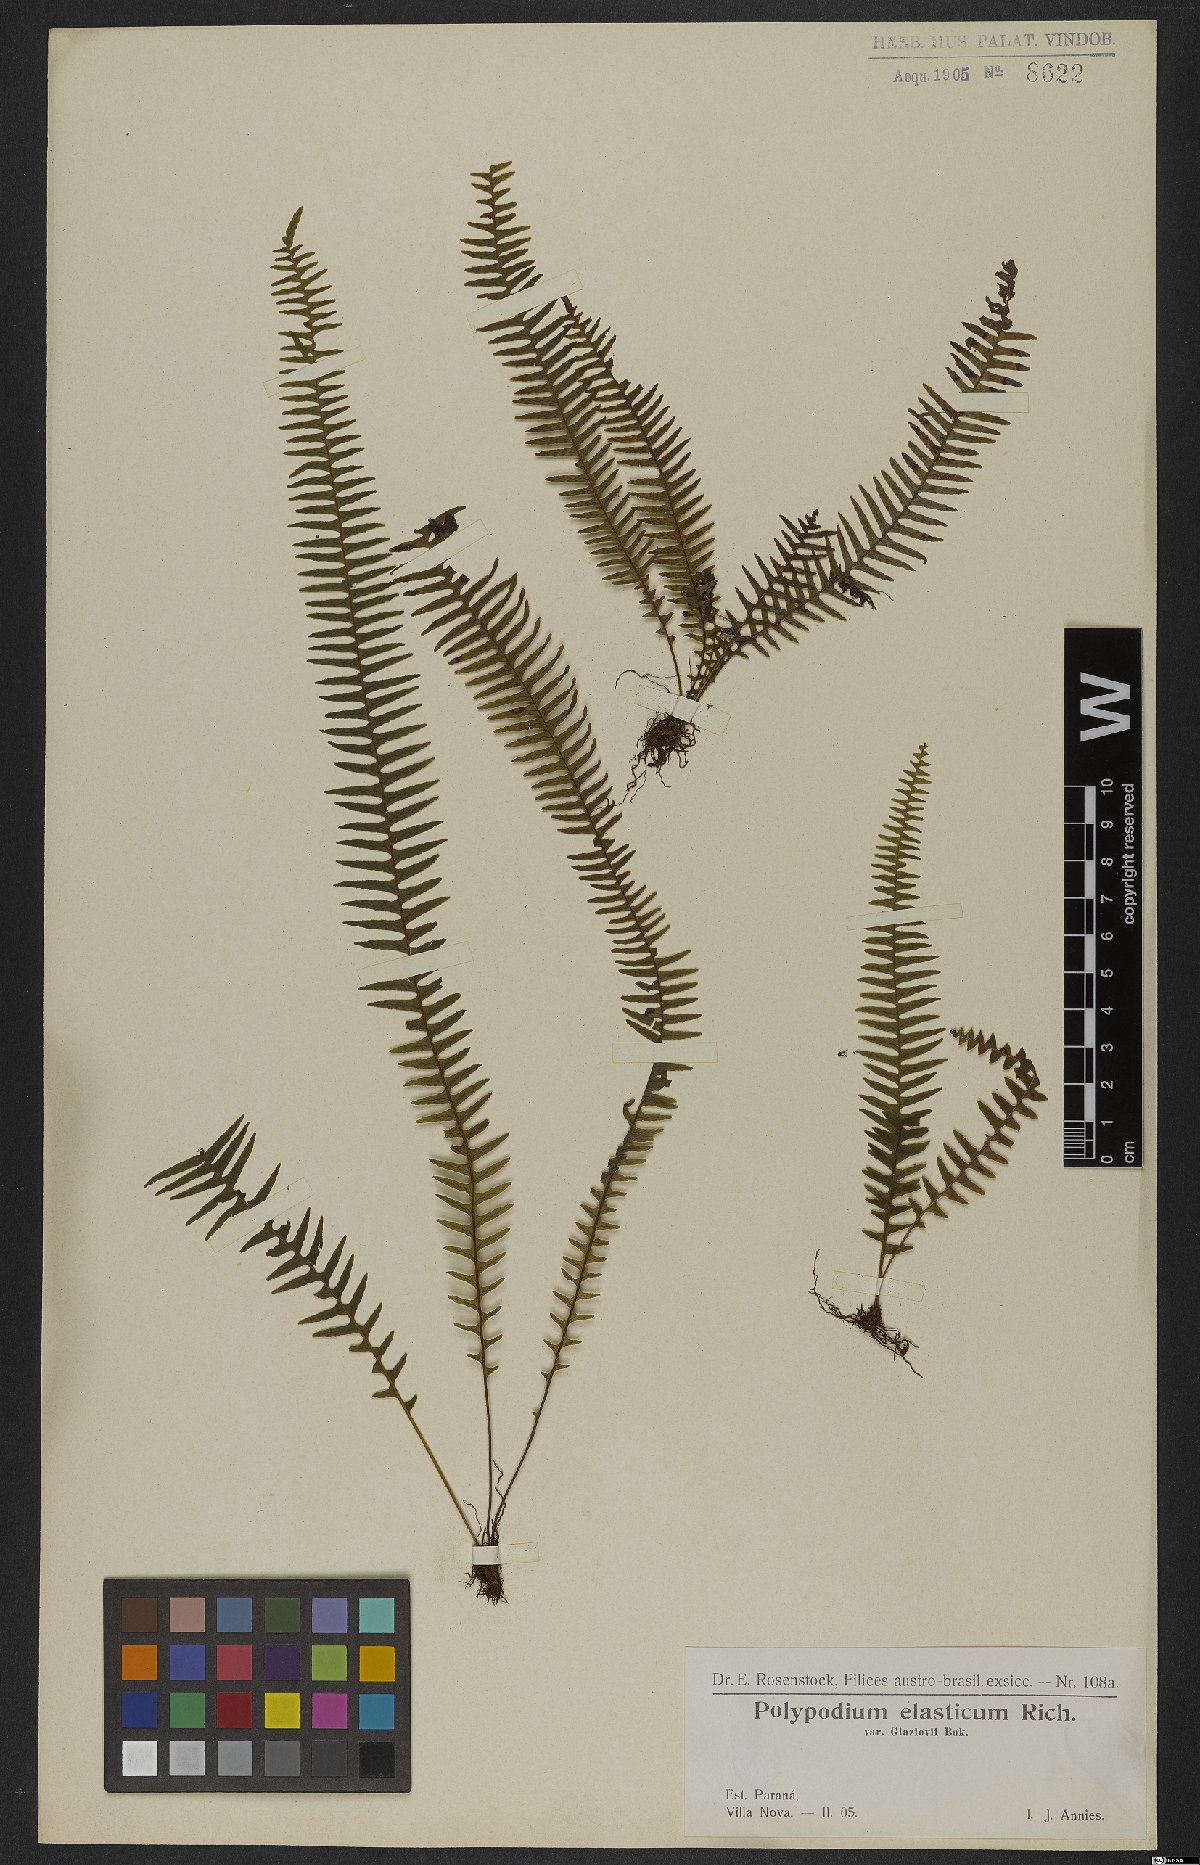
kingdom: Plantae
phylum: Tracheophyta
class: Polypodiopsida
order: Polypodiales
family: Polypodiaceae
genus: Pecluma
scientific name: Pecluma plumula
